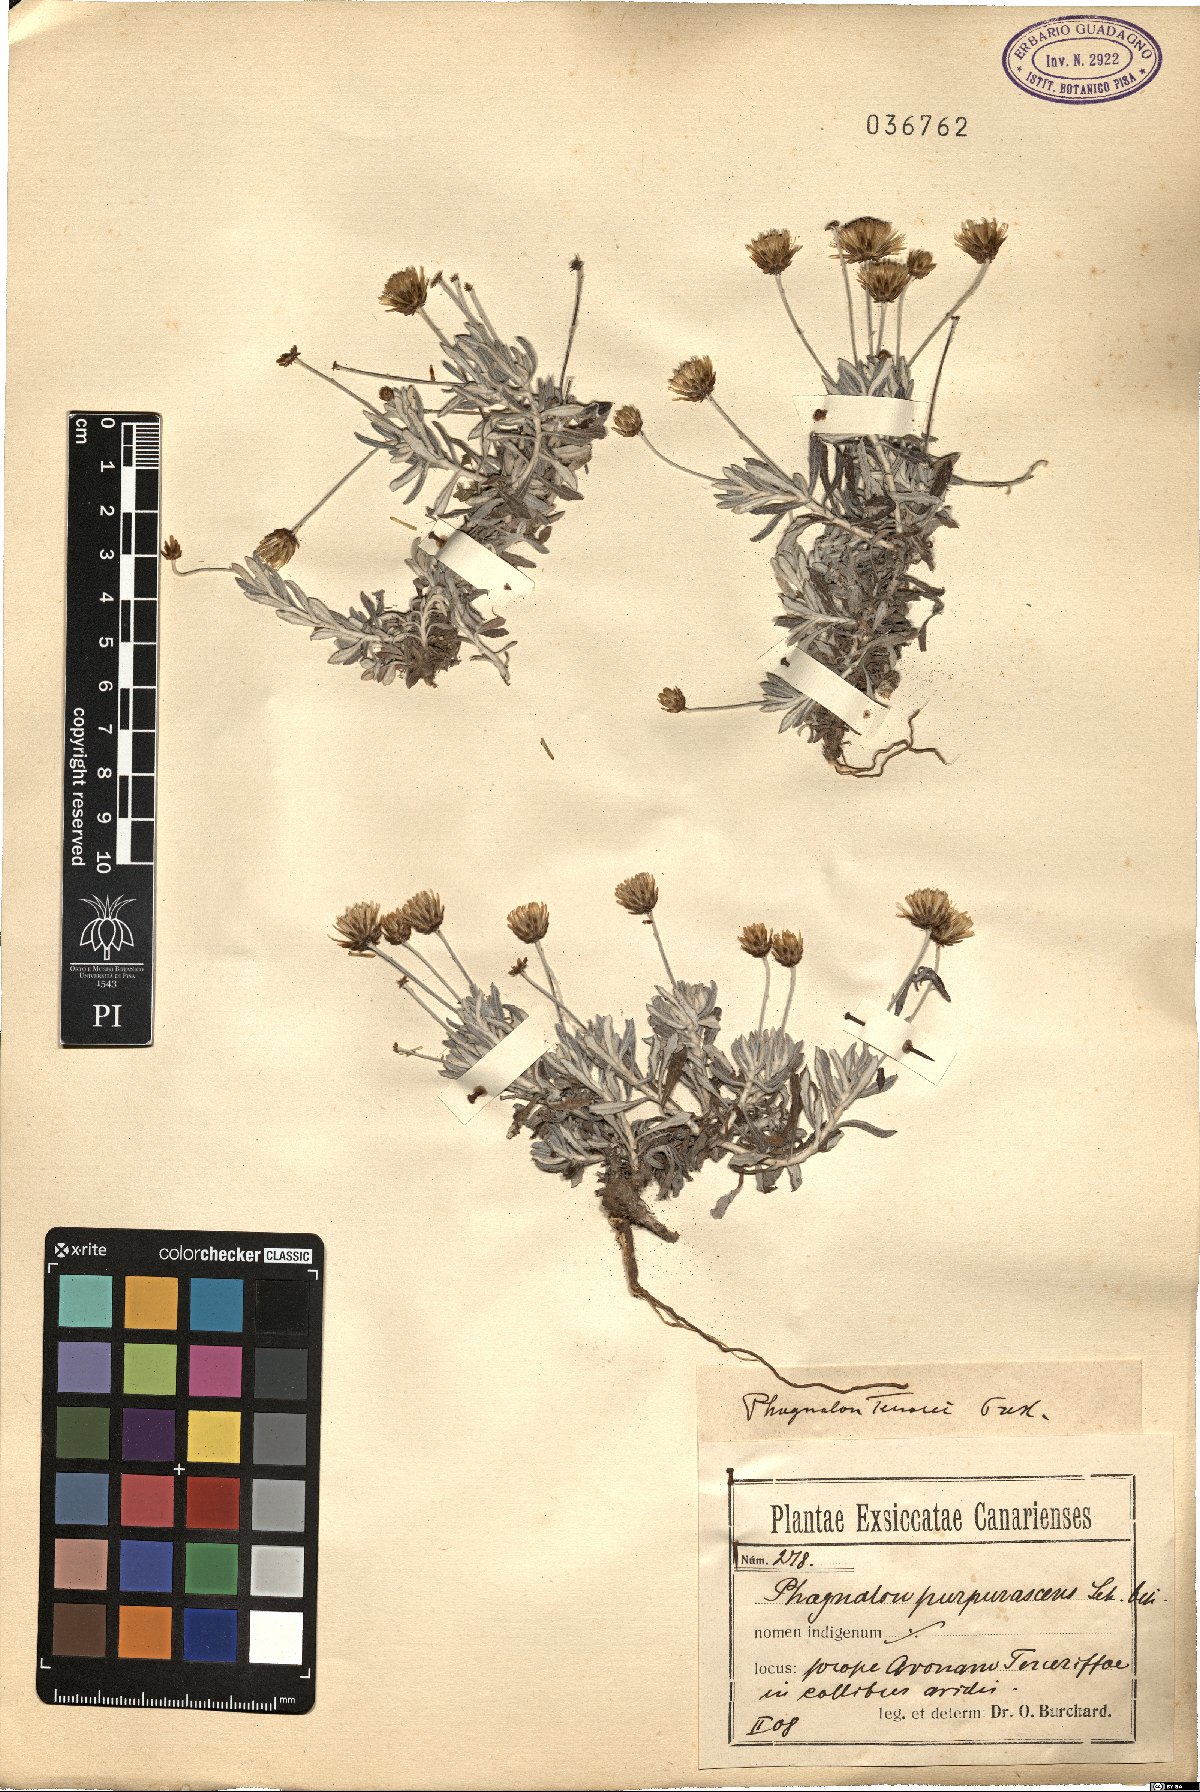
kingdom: Plantae
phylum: Tracheophyta
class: Magnoliopsida
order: Asterales
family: Asteraceae
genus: Phagnalon
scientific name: Phagnalon purpurascens
